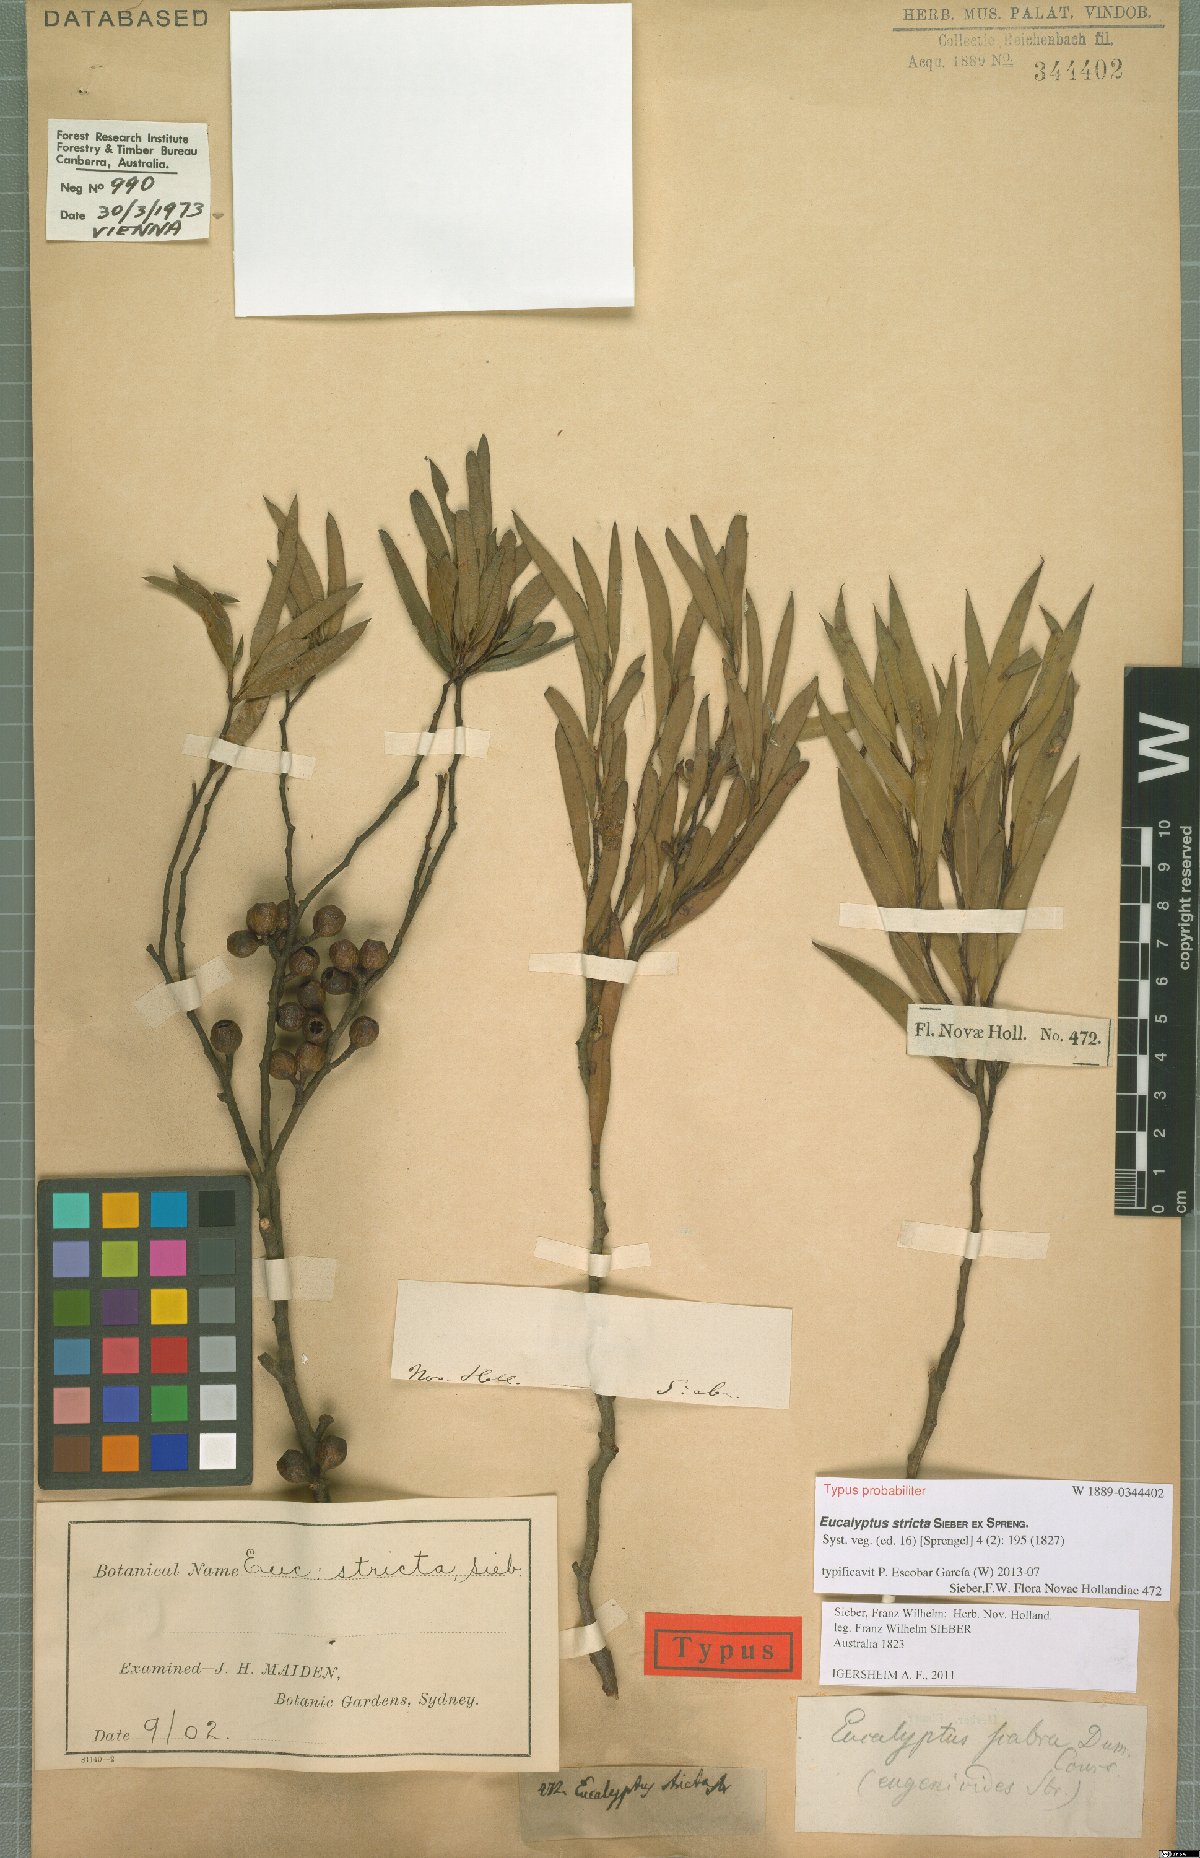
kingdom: Plantae
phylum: Tracheophyta
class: Magnoliopsida
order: Myrtales
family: Myrtaceae
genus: Eucalyptus
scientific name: Eucalyptus stricta
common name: Blue-mountain-malle-ash
